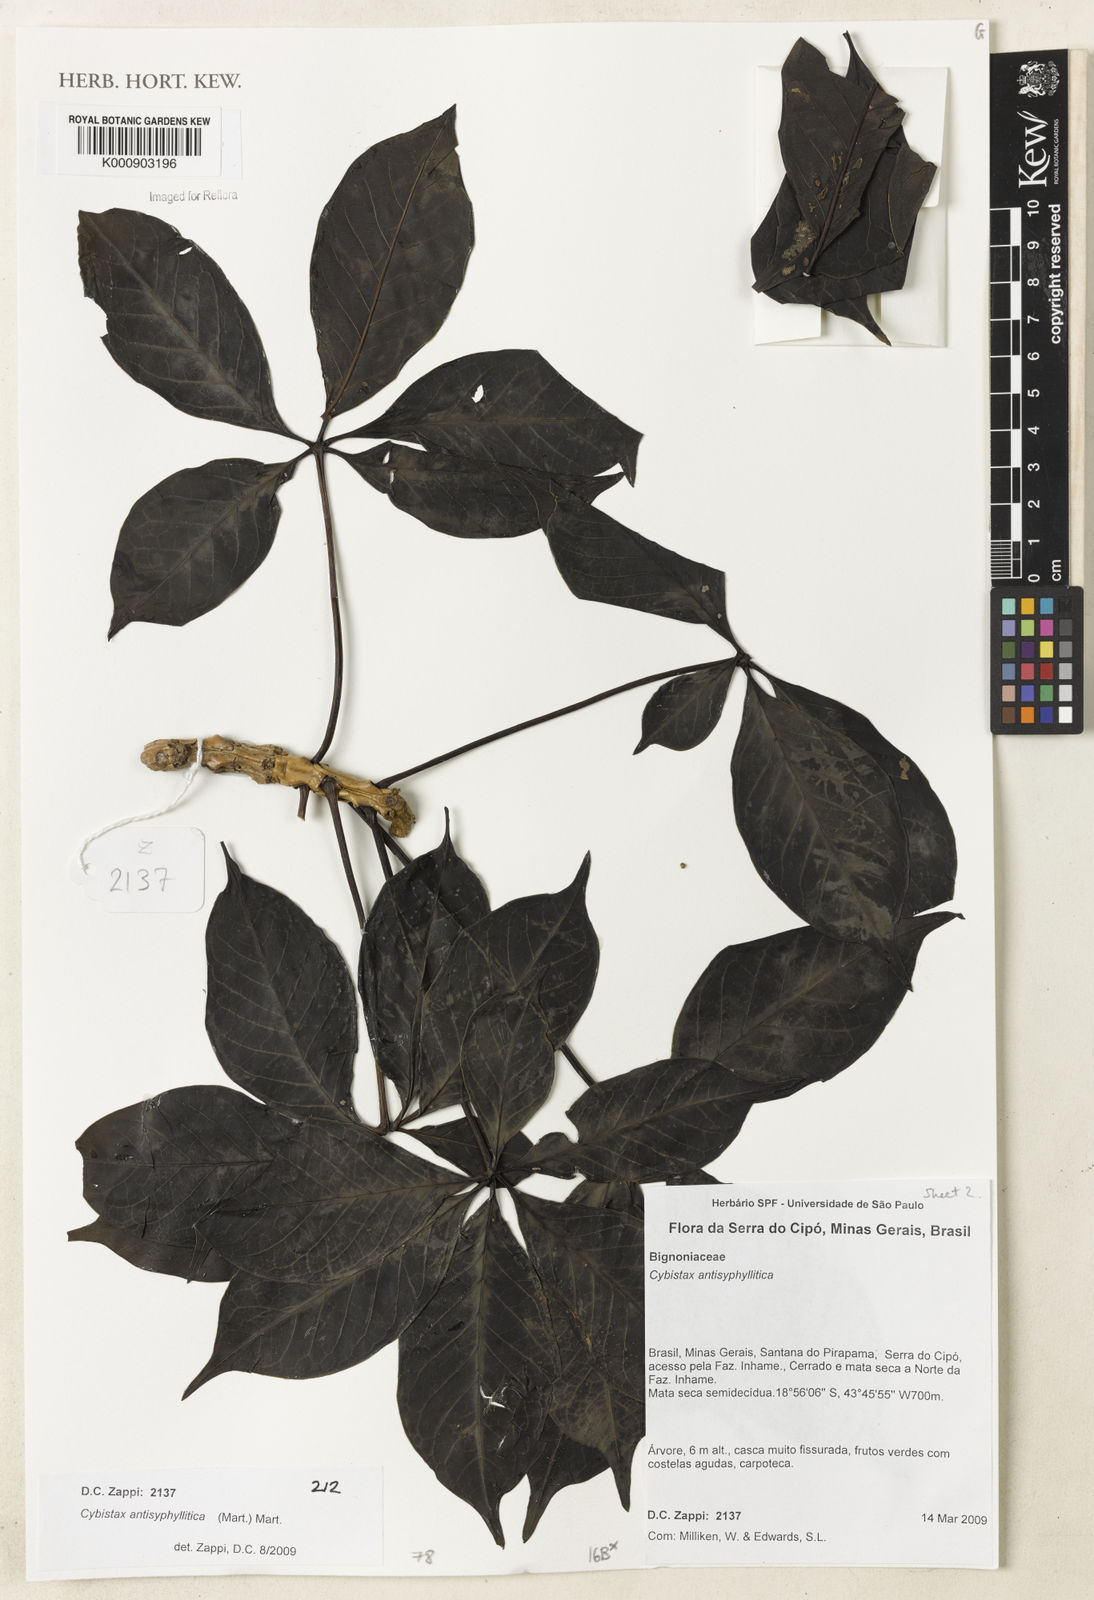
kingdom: Plantae
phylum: Tracheophyta
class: Magnoliopsida
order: Lamiales
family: Bignoniaceae
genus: Cybistax
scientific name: Cybistax antisyphilitica
